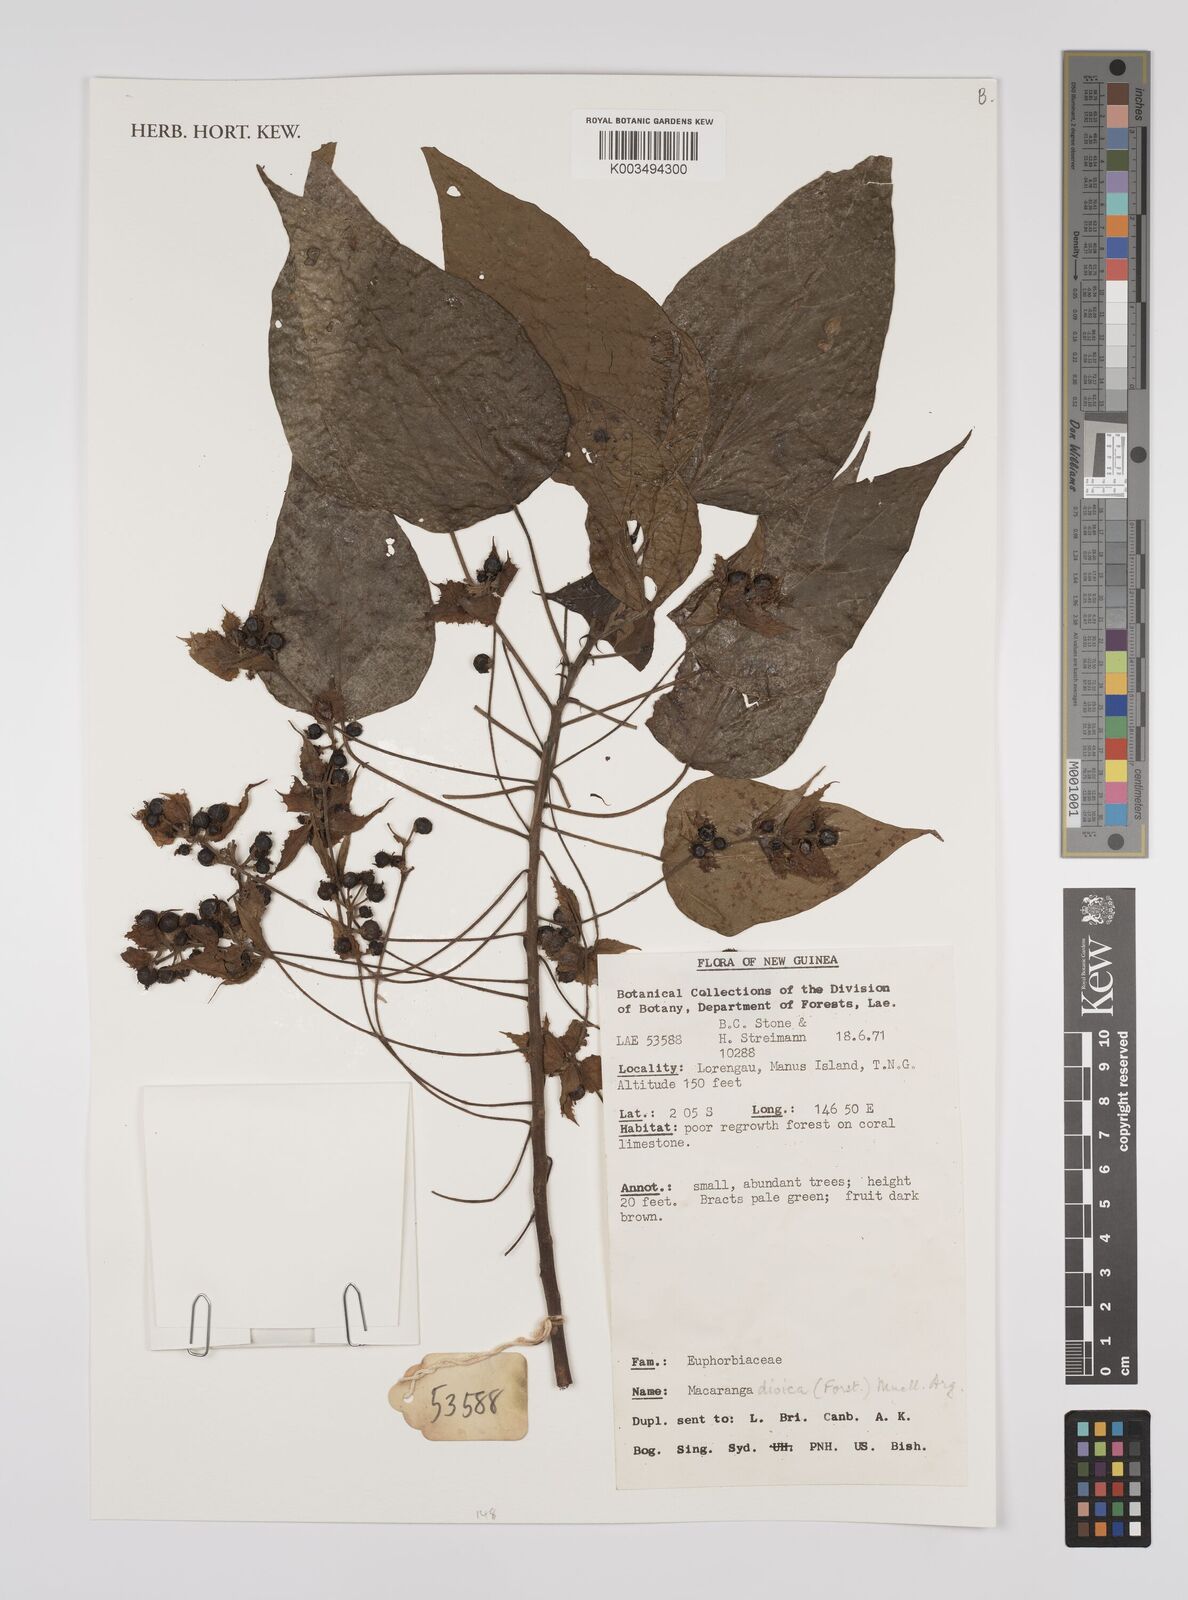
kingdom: Plantae
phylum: Tracheophyta
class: Magnoliopsida
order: Malpighiales
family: Euphorbiaceae
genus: Macaranga
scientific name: Macaranga dioica
